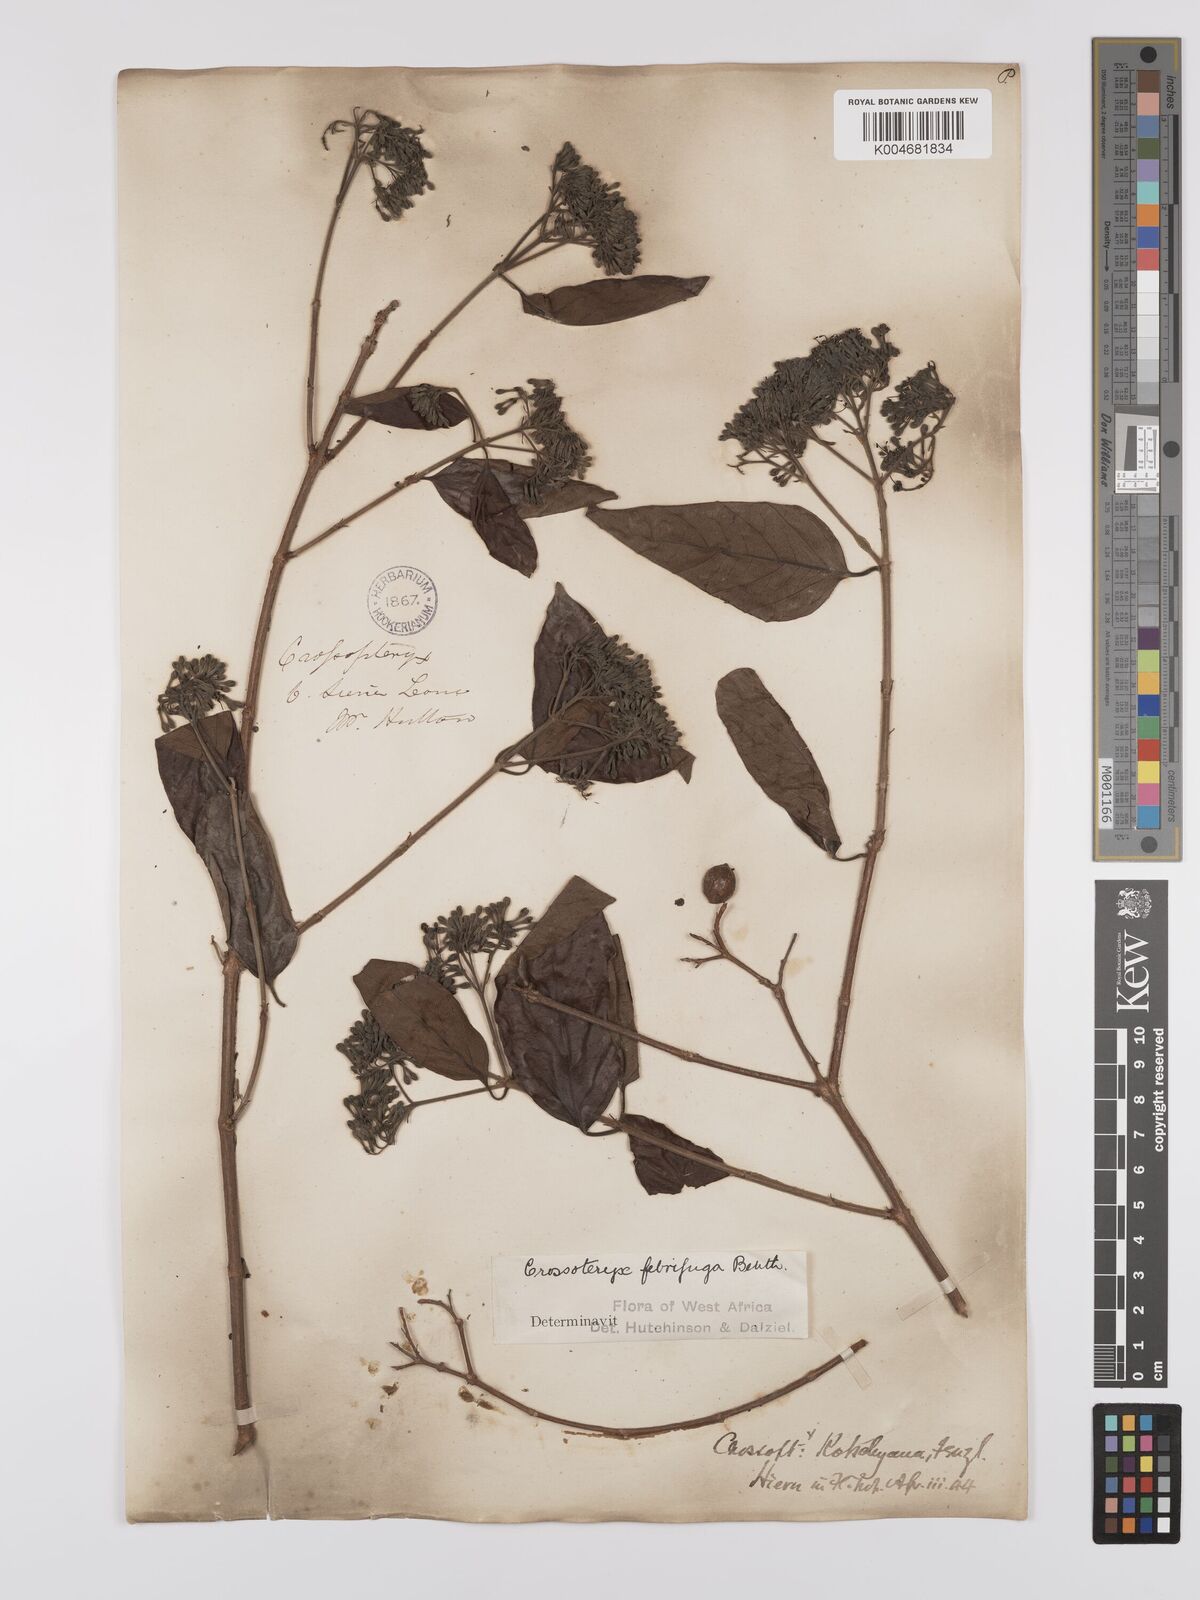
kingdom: Plantae
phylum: Tracheophyta
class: Magnoliopsida
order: Gentianales
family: Rubiaceae
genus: Crossopteryx
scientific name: Crossopteryx febrifuga
